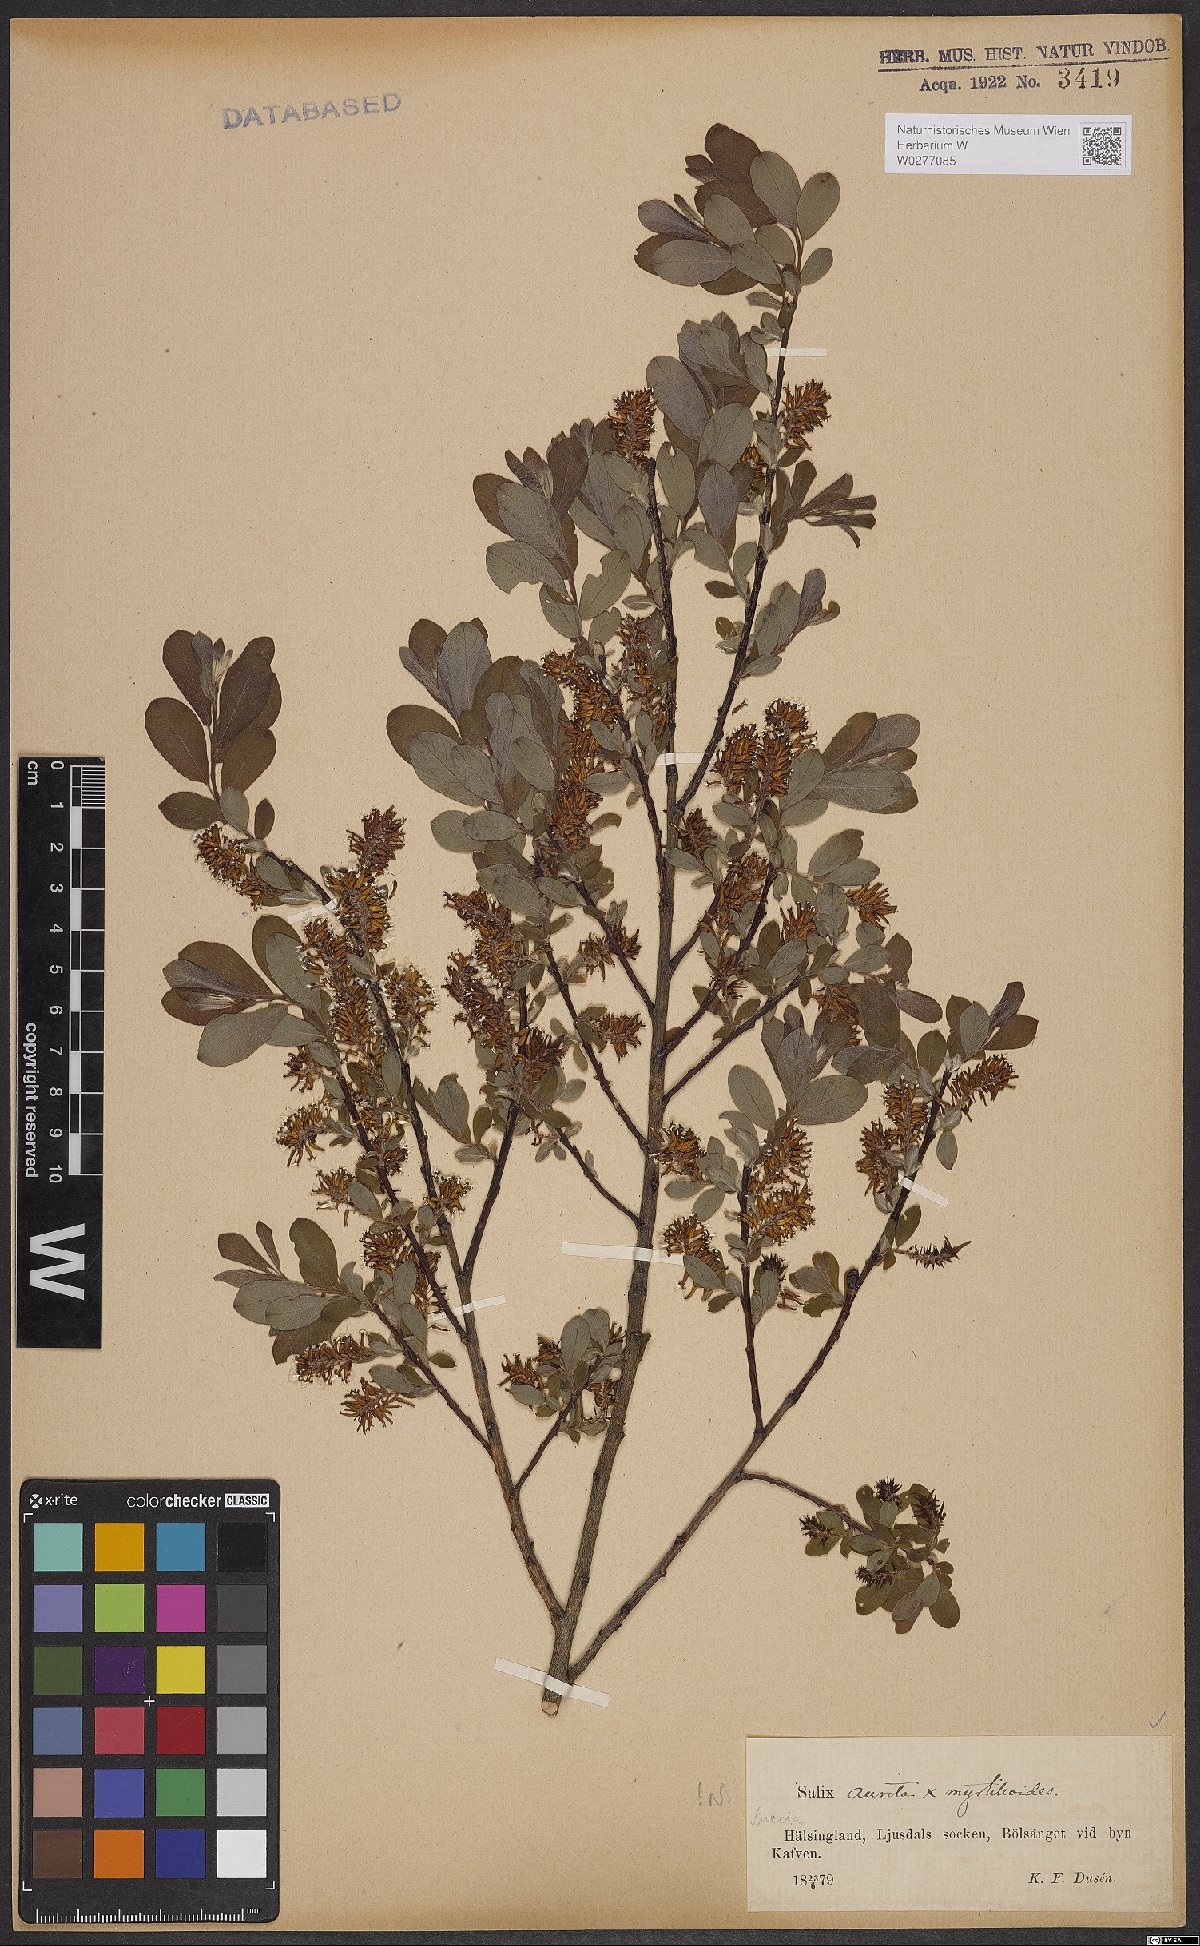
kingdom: Plantae
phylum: Tracheophyta
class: Magnoliopsida
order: Malpighiales
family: Salicaceae
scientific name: Salicaceae
